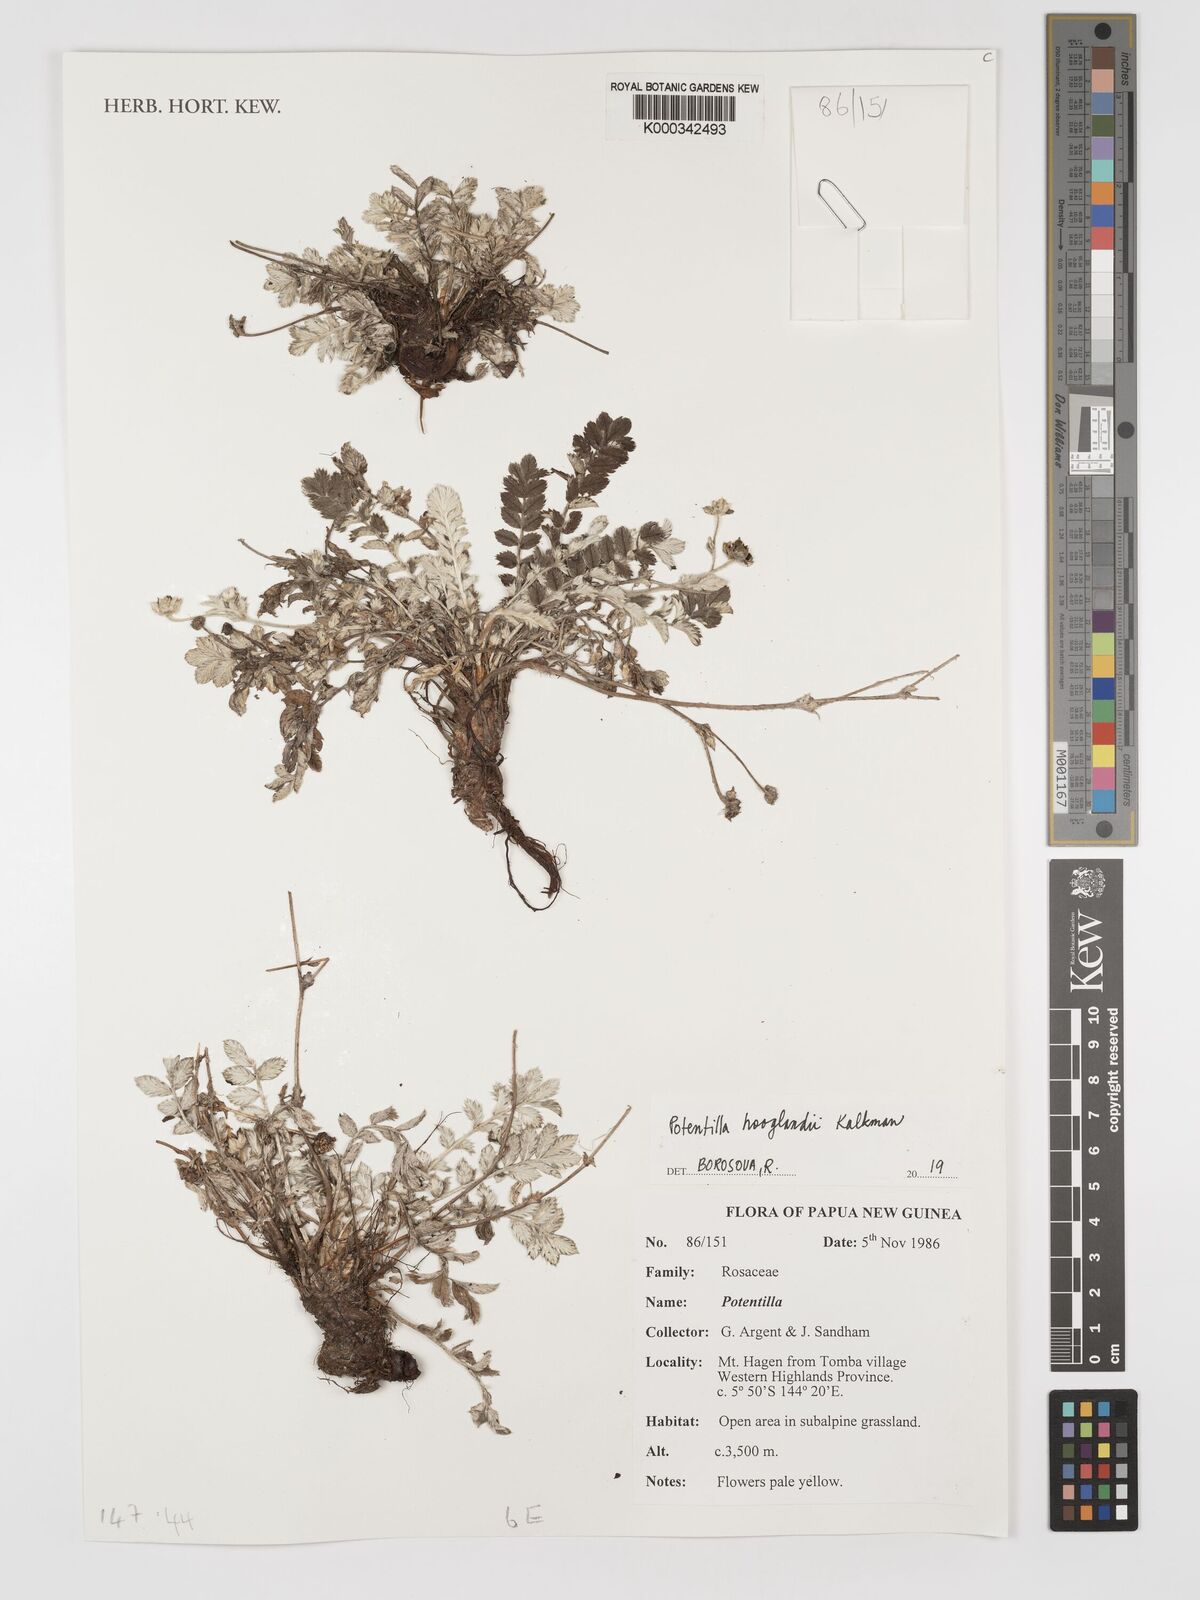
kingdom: Plantae
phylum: Tracheophyta
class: Magnoliopsida
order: Rosales
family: Rosaceae
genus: Argentina
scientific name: Argentina hooglandii
